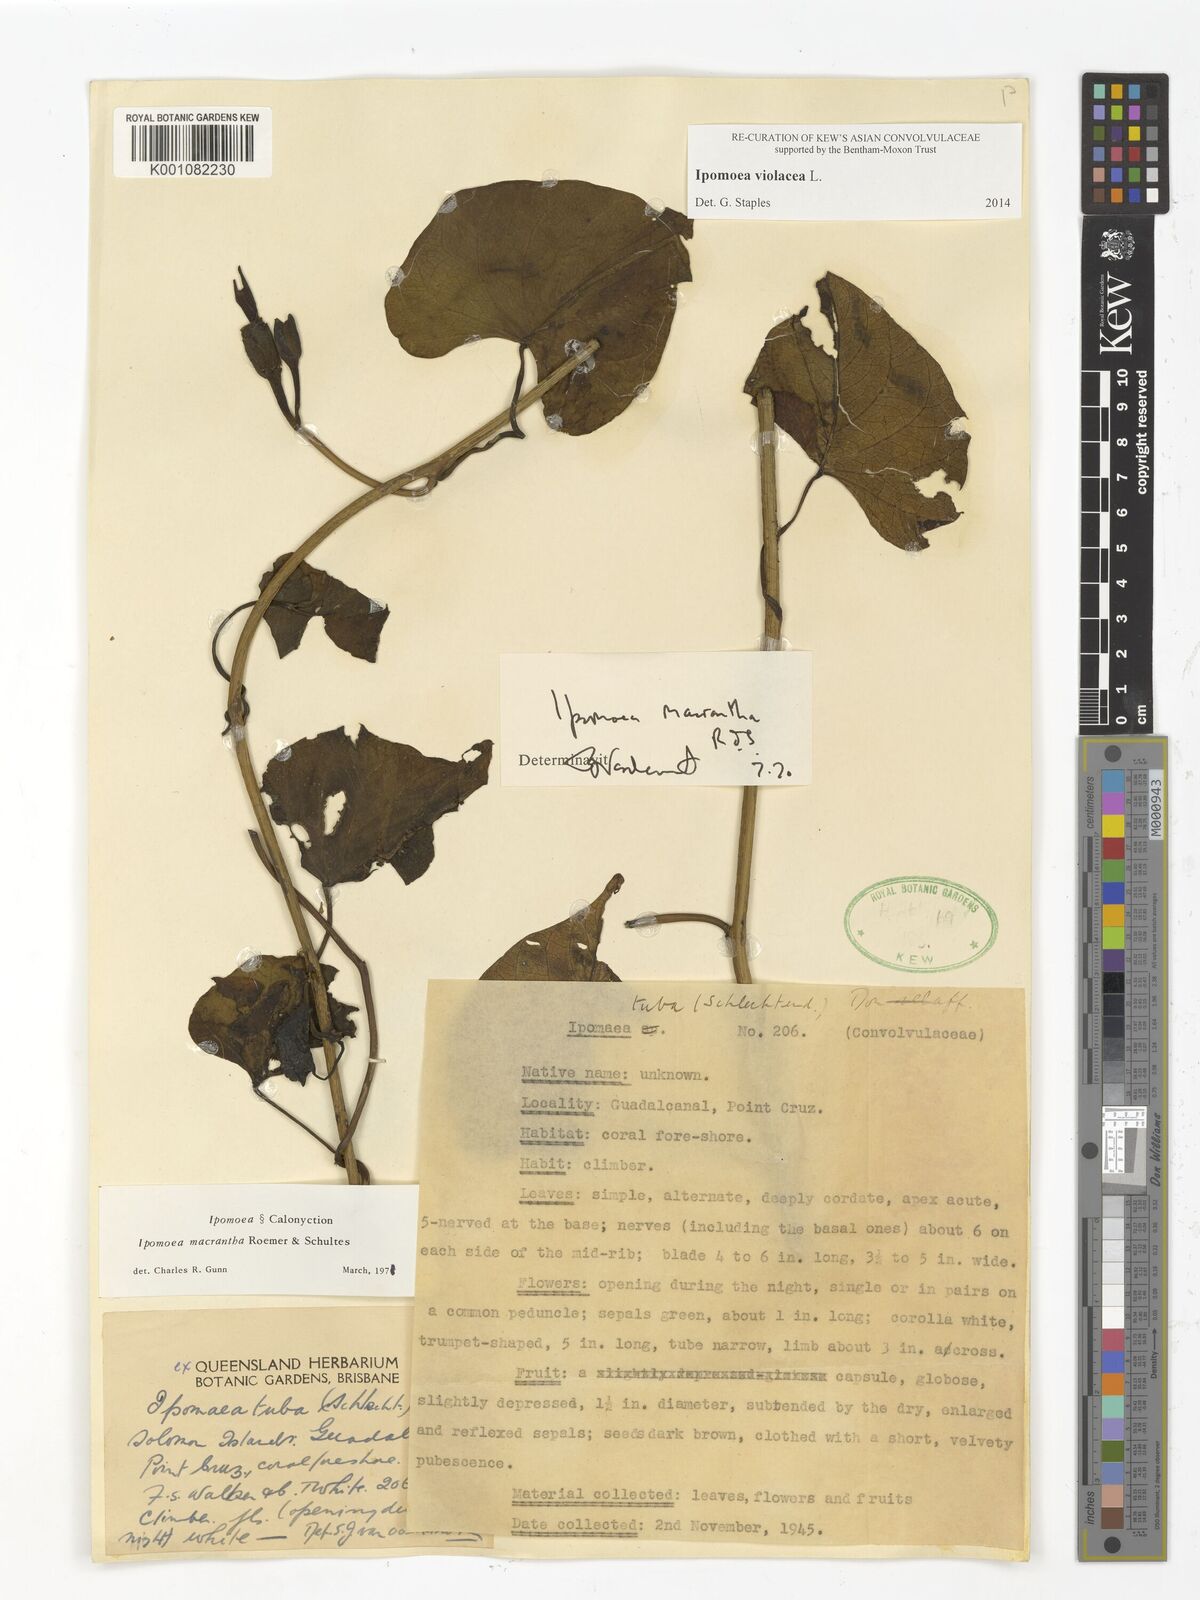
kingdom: Plantae
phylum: Tracheophyta
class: Magnoliopsida
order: Solanales
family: Convolvulaceae
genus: Ipomoea
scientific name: Ipomoea violacea
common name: Beach moonflower
